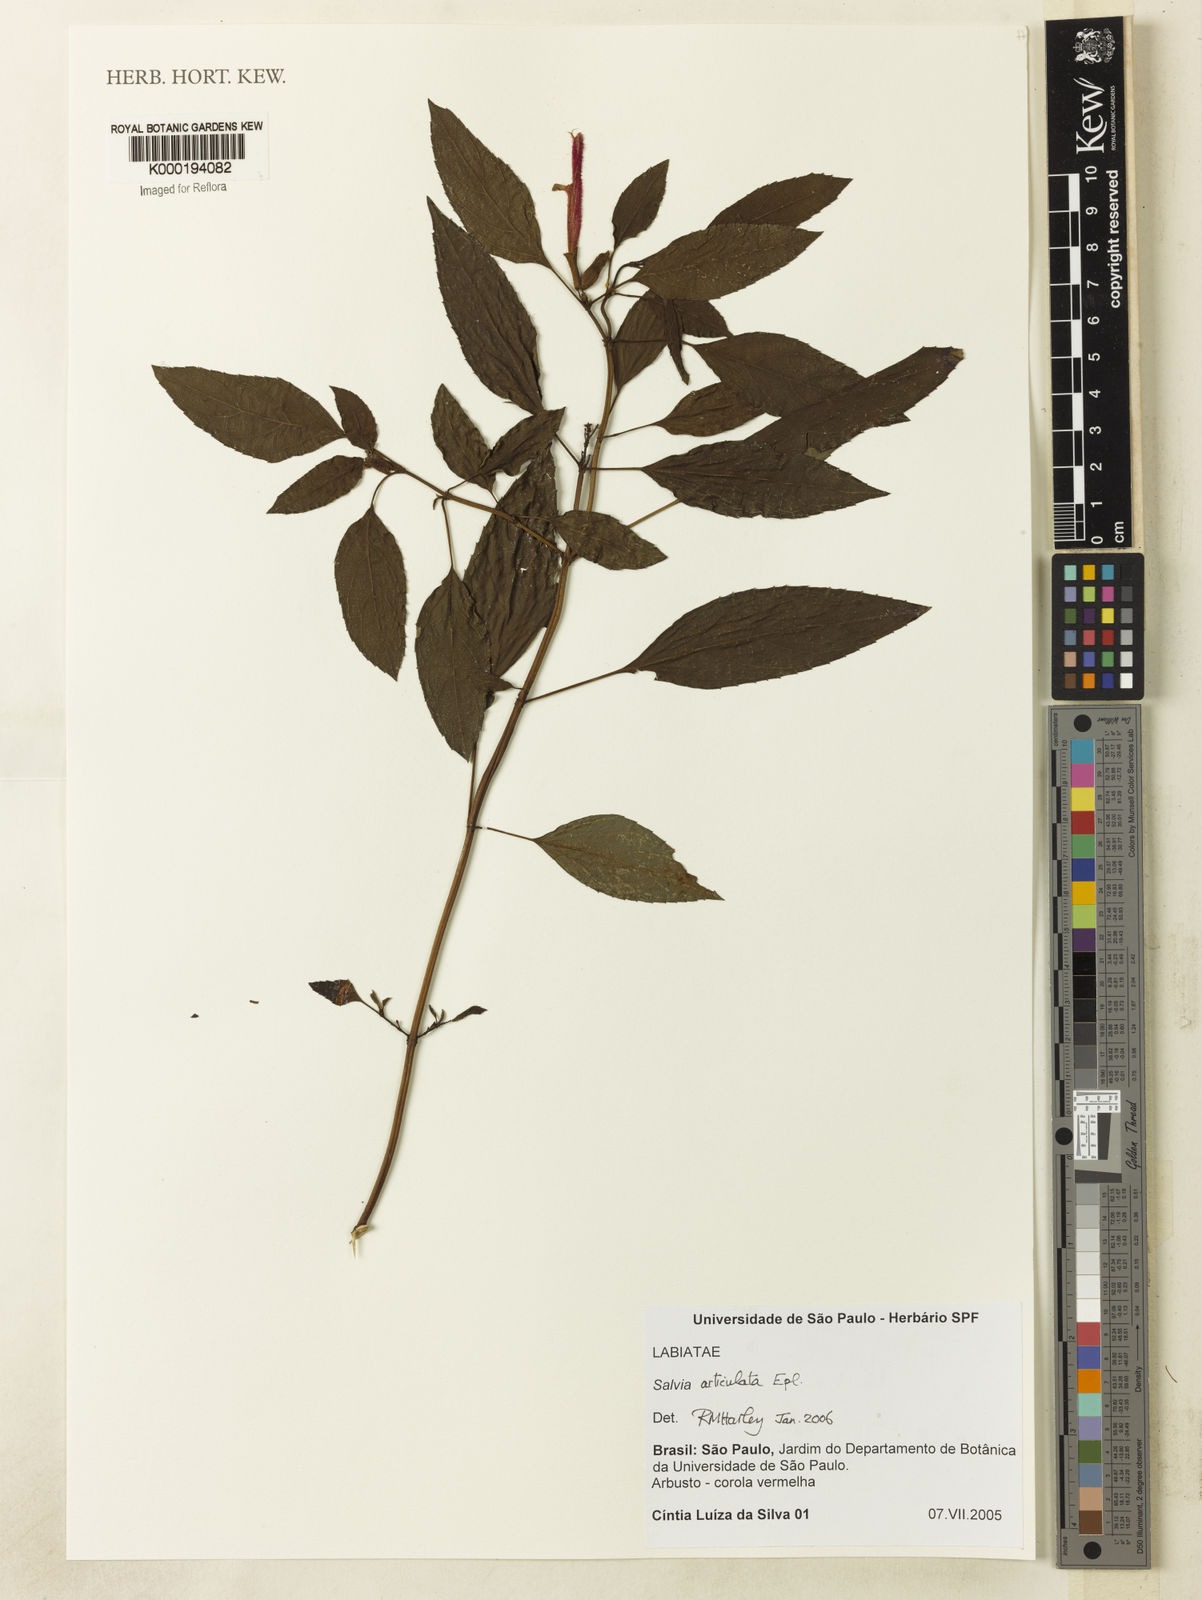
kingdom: Plantae
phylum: Tracheophyta
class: Magnoliopsida
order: Lamiales
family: Lamiaceae
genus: Salvia
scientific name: Salvia articulata
